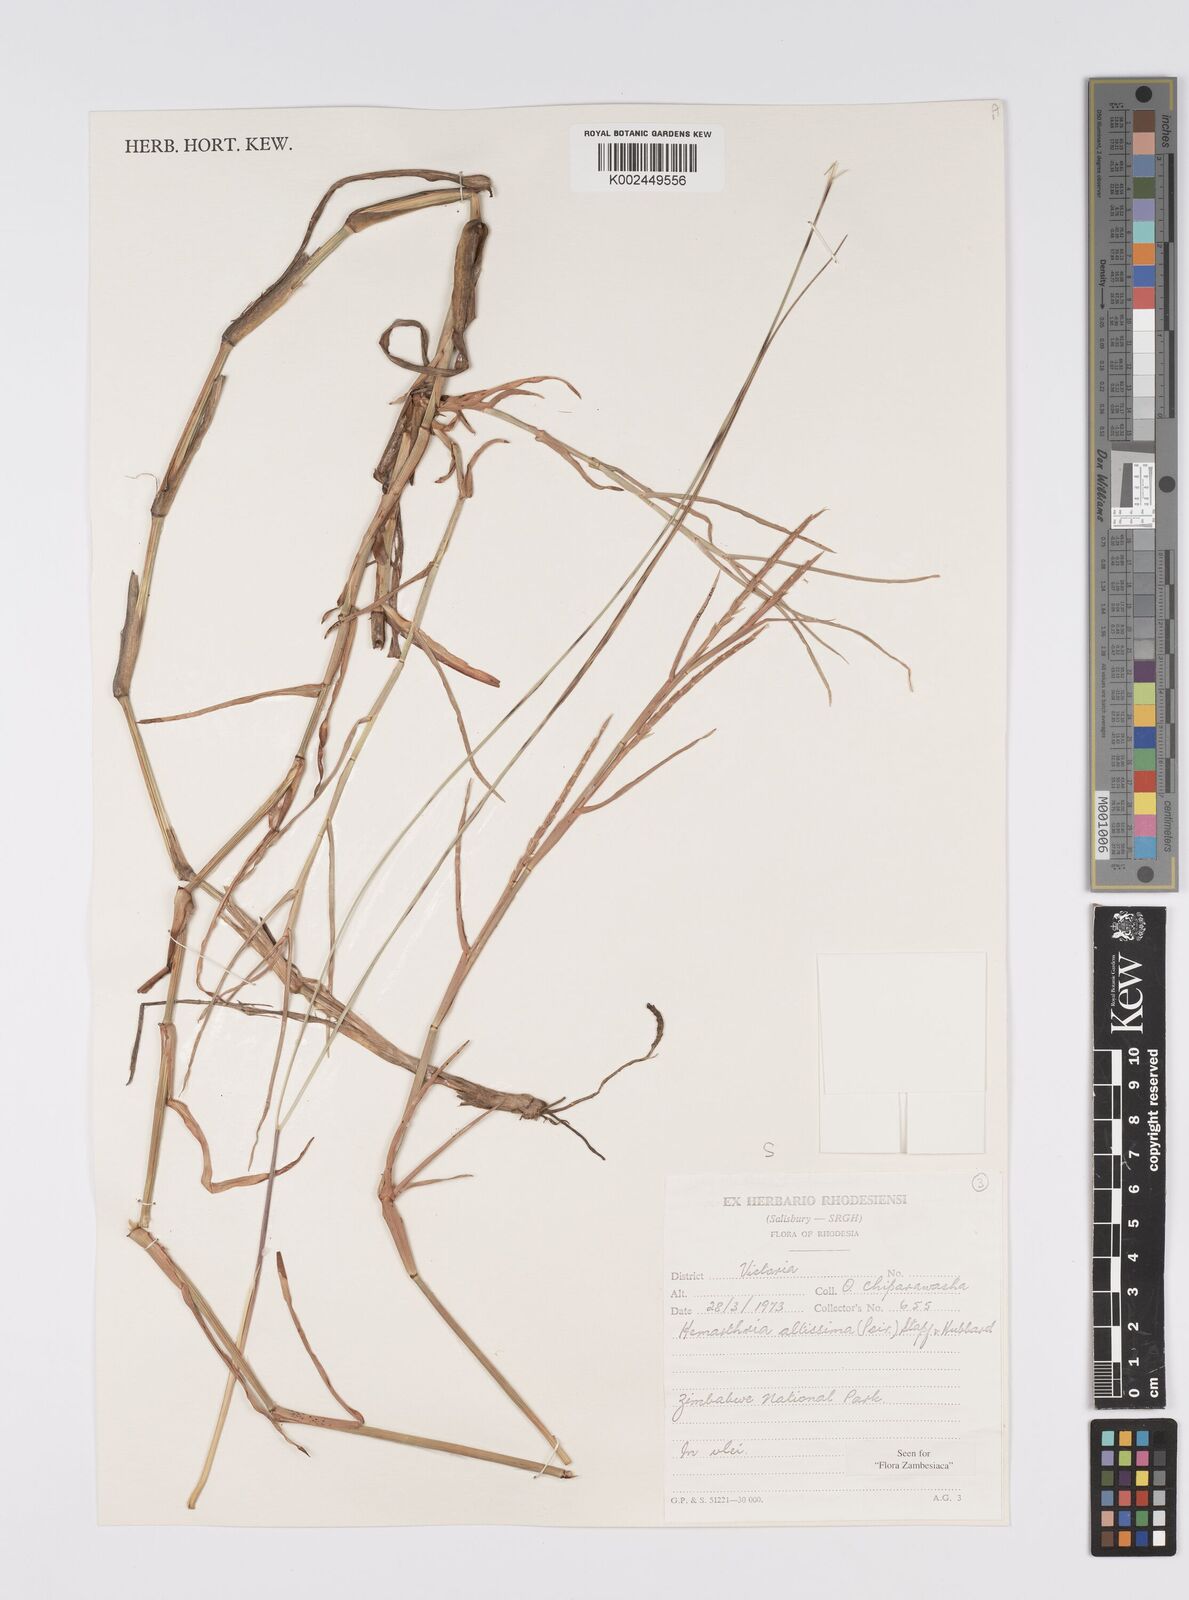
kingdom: Plantae
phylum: Tracheophyta
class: Liliopsida
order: Poales
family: Poaceae
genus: Hemarthria
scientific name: Hemarthria altissima
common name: African jointgrass
